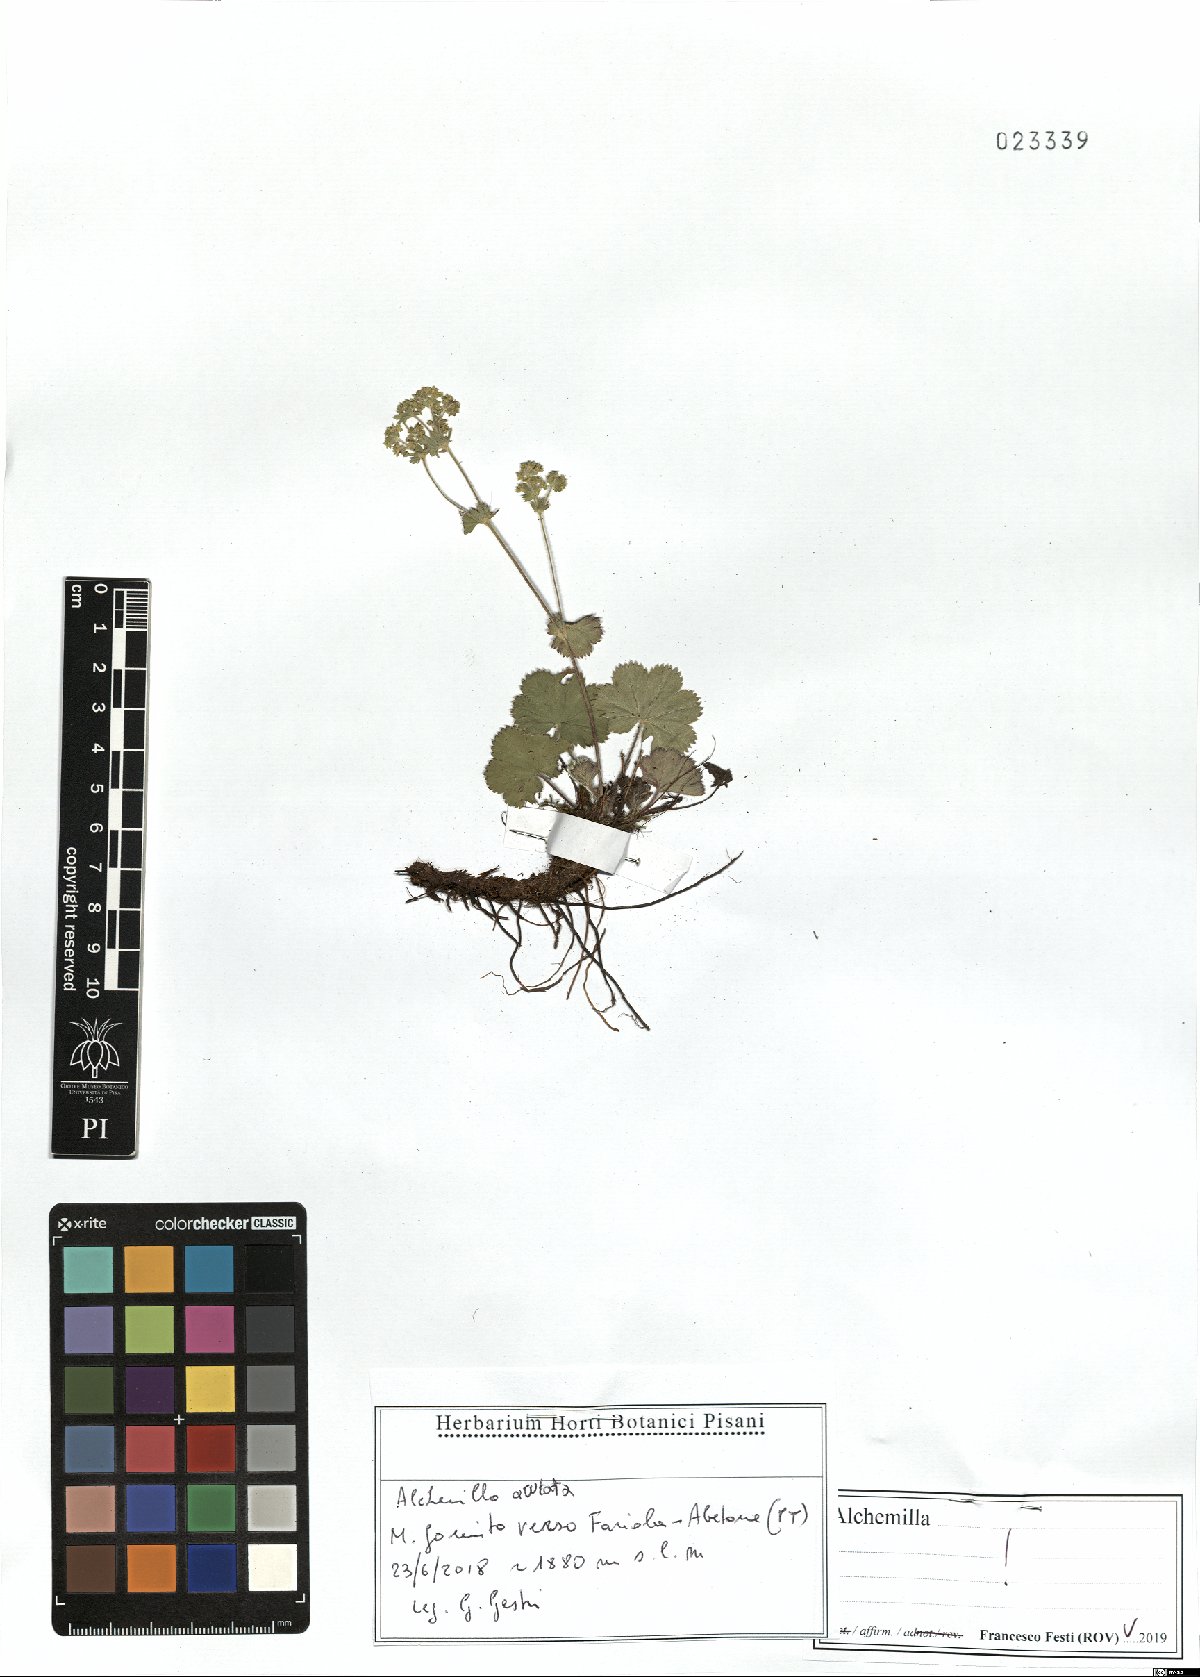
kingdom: Plantae
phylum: Tracheophyta
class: Magnoliopsida
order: Rosales
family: Rosaceae
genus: Alchemilla
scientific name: Alchemilla acutata
